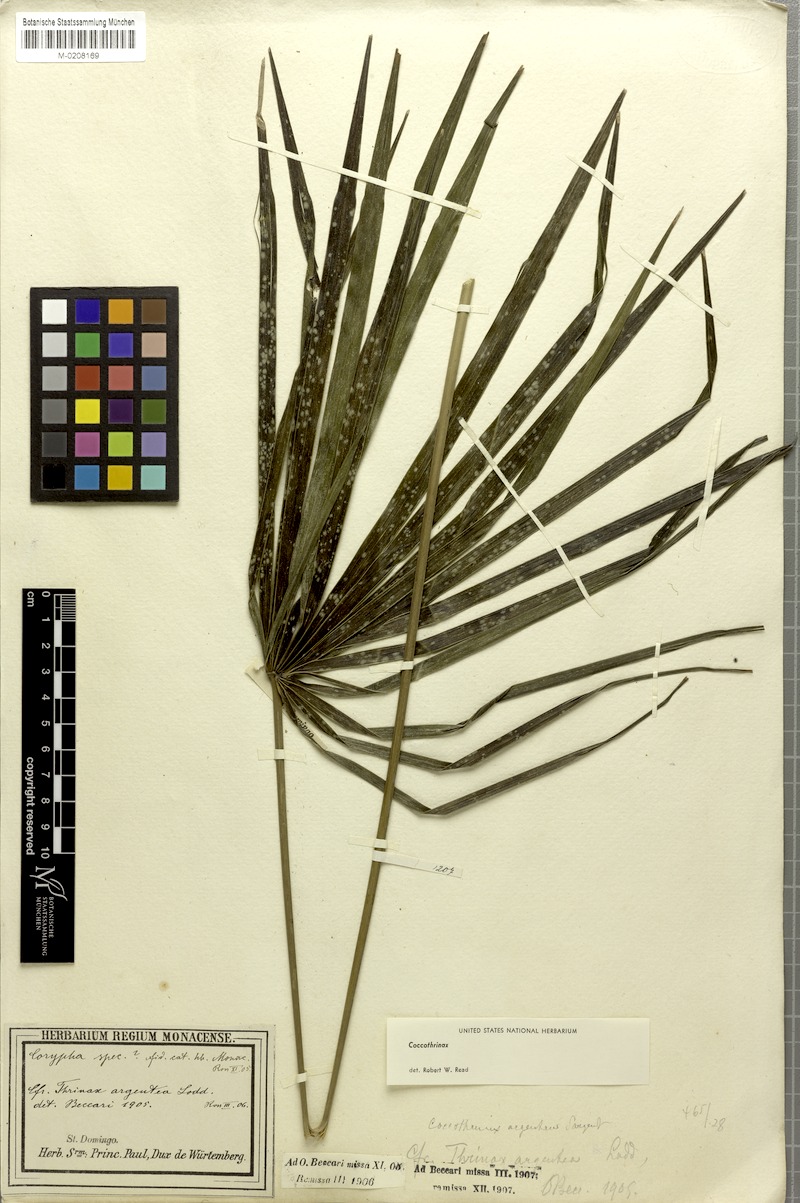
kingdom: Plantae
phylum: Tracheophyta
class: Liliopsida
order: Arecales
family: Arecaceae
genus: Coccothrinax
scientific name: Coccothrinax argentea
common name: Broom palm
